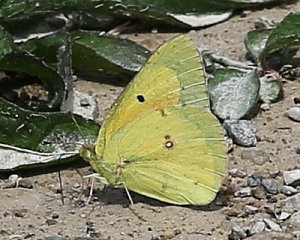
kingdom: Animalia
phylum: Arthropoda
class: Insecta
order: Lepidoptera
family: Pieridae
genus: Colias
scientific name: Colias eurytheme
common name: Orange Sulphur
